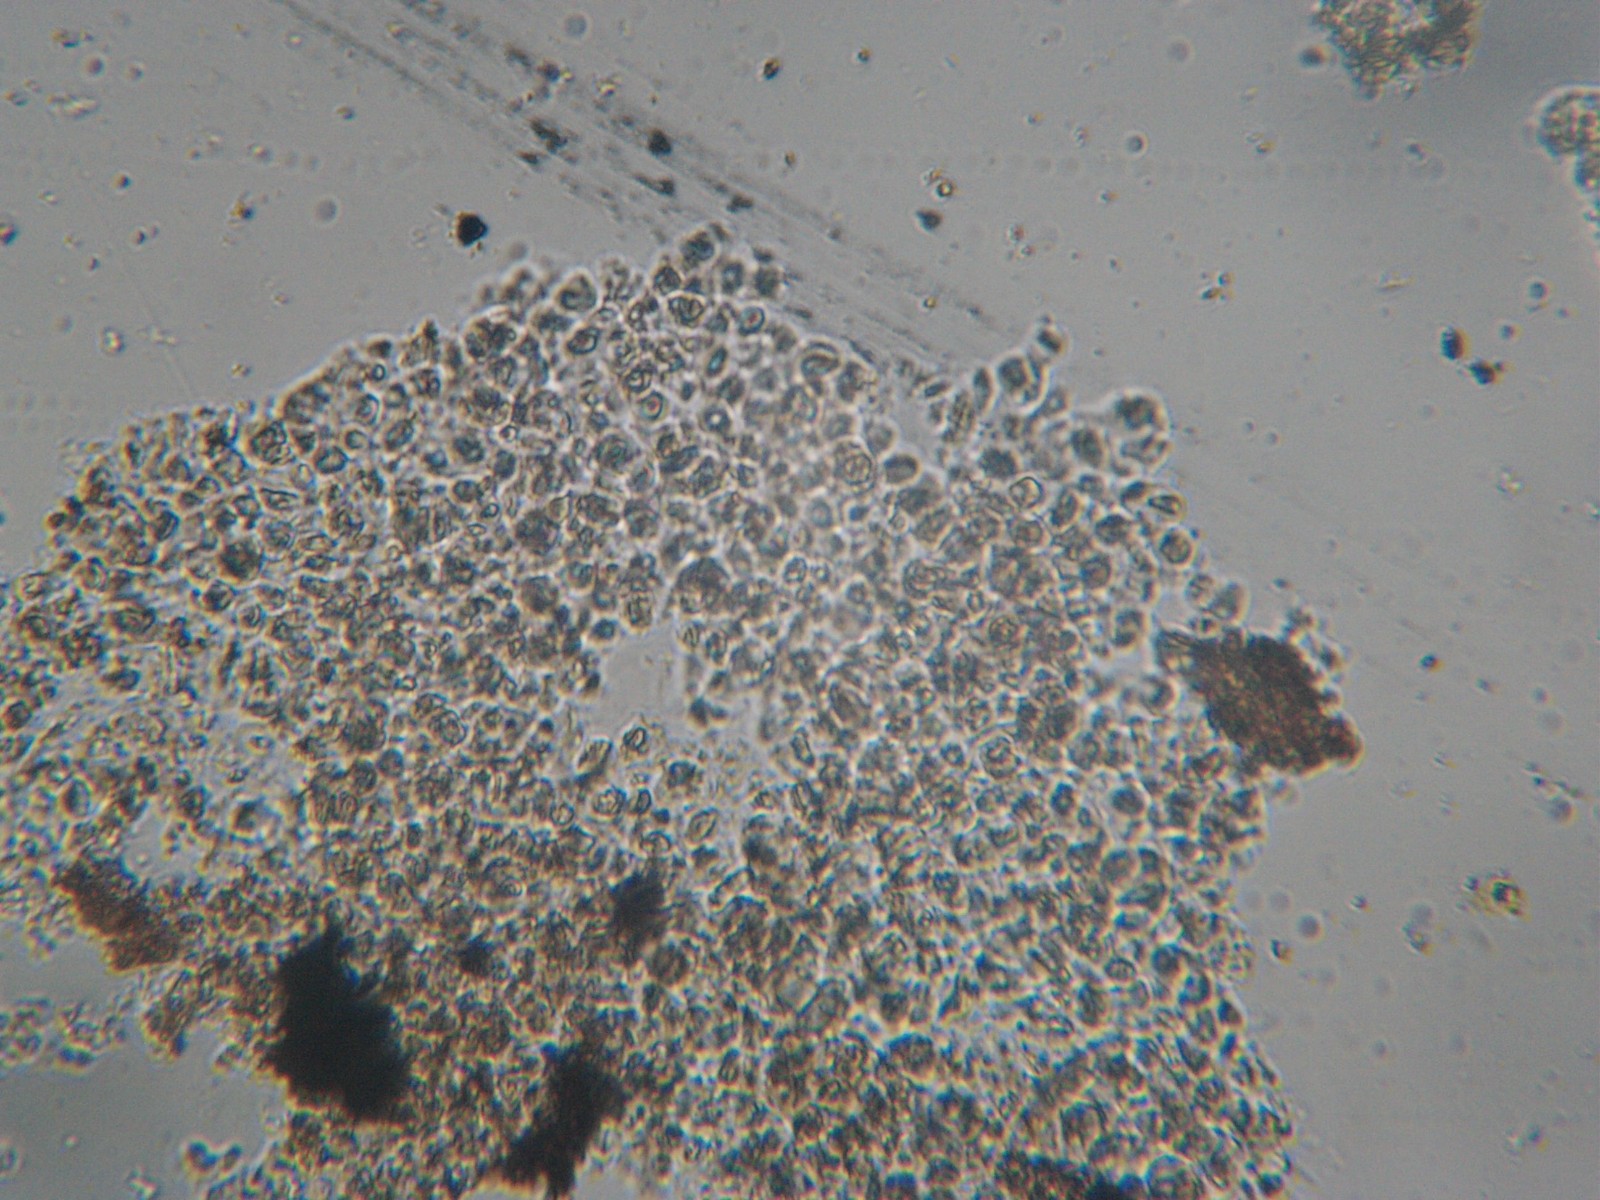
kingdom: Fungi
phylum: Ascomycota
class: Arthoniomycetes
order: Arthoniales
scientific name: Arthoniales
